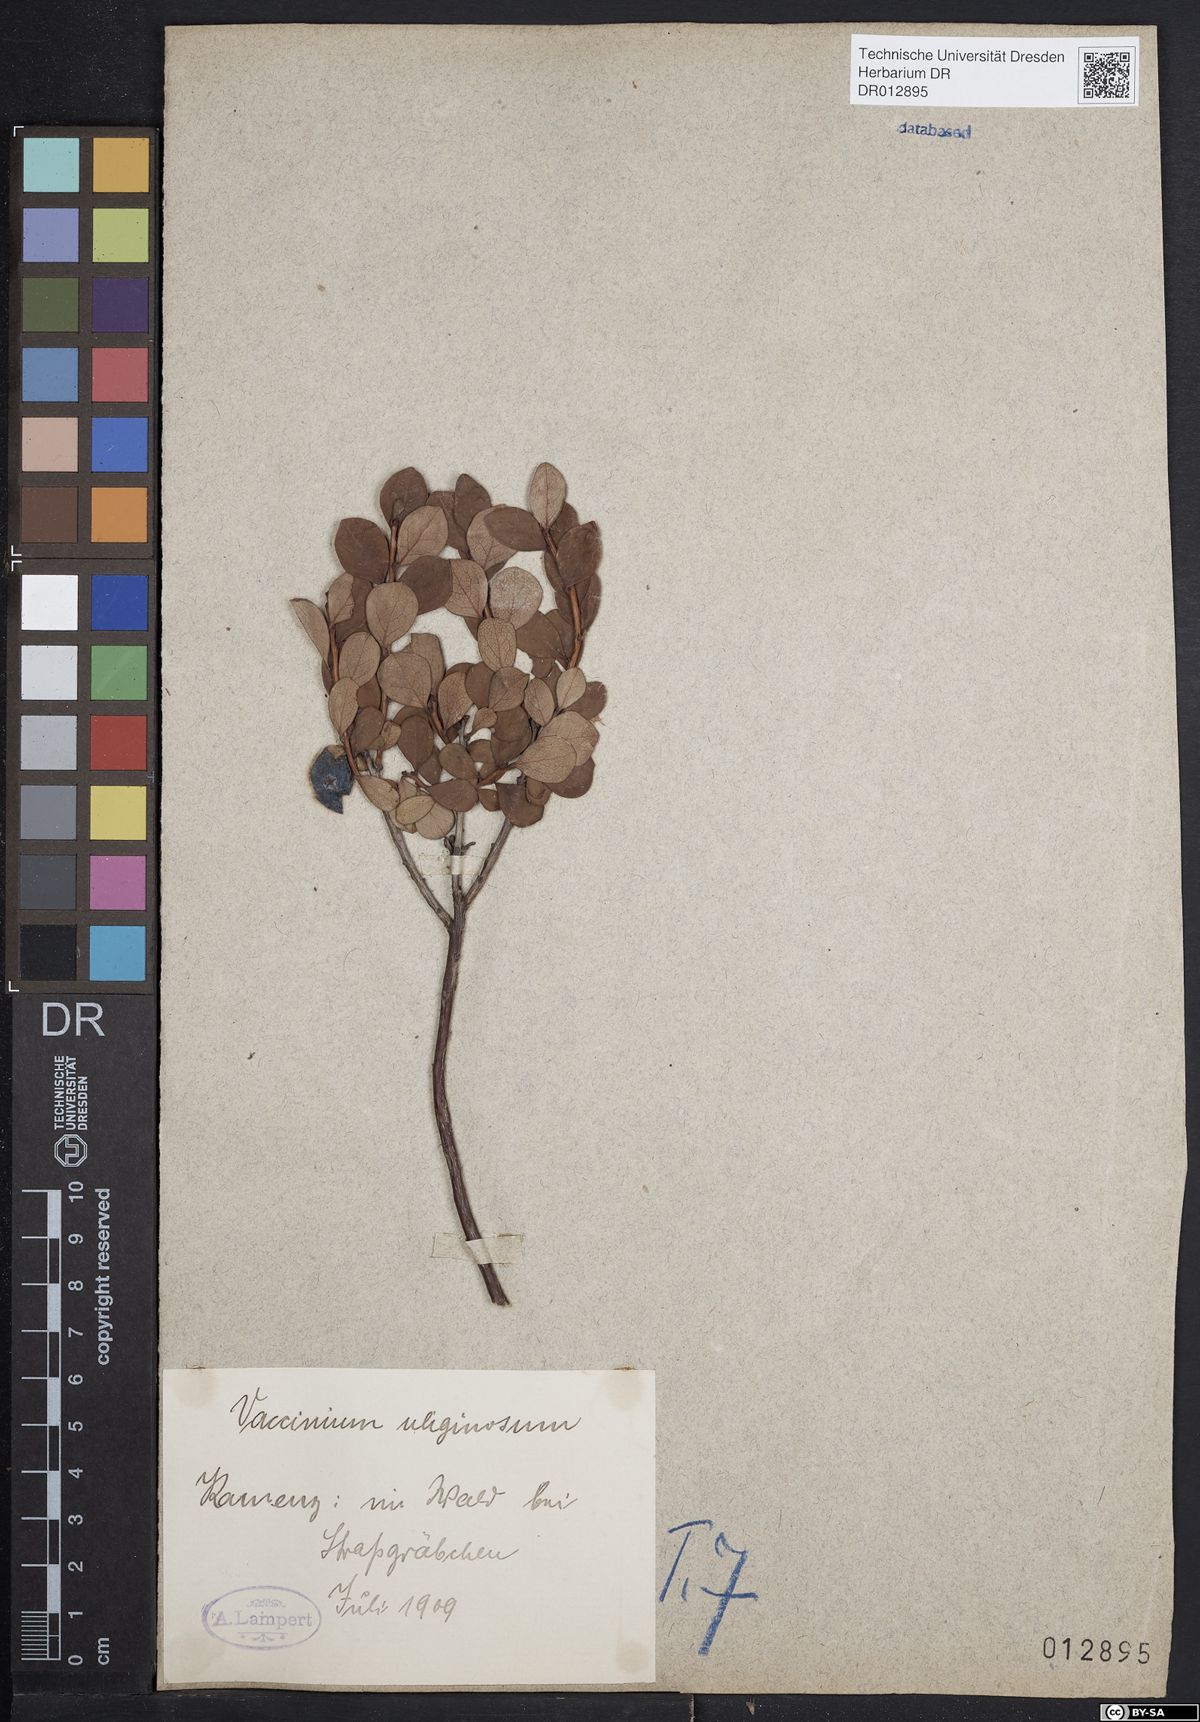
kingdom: Plantae
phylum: Tracheophyta
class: Magnoliopsida
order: Ericales
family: Ericaceae
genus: Vaccinium
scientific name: Vaccinium uliginosum
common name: Bog bilberry
